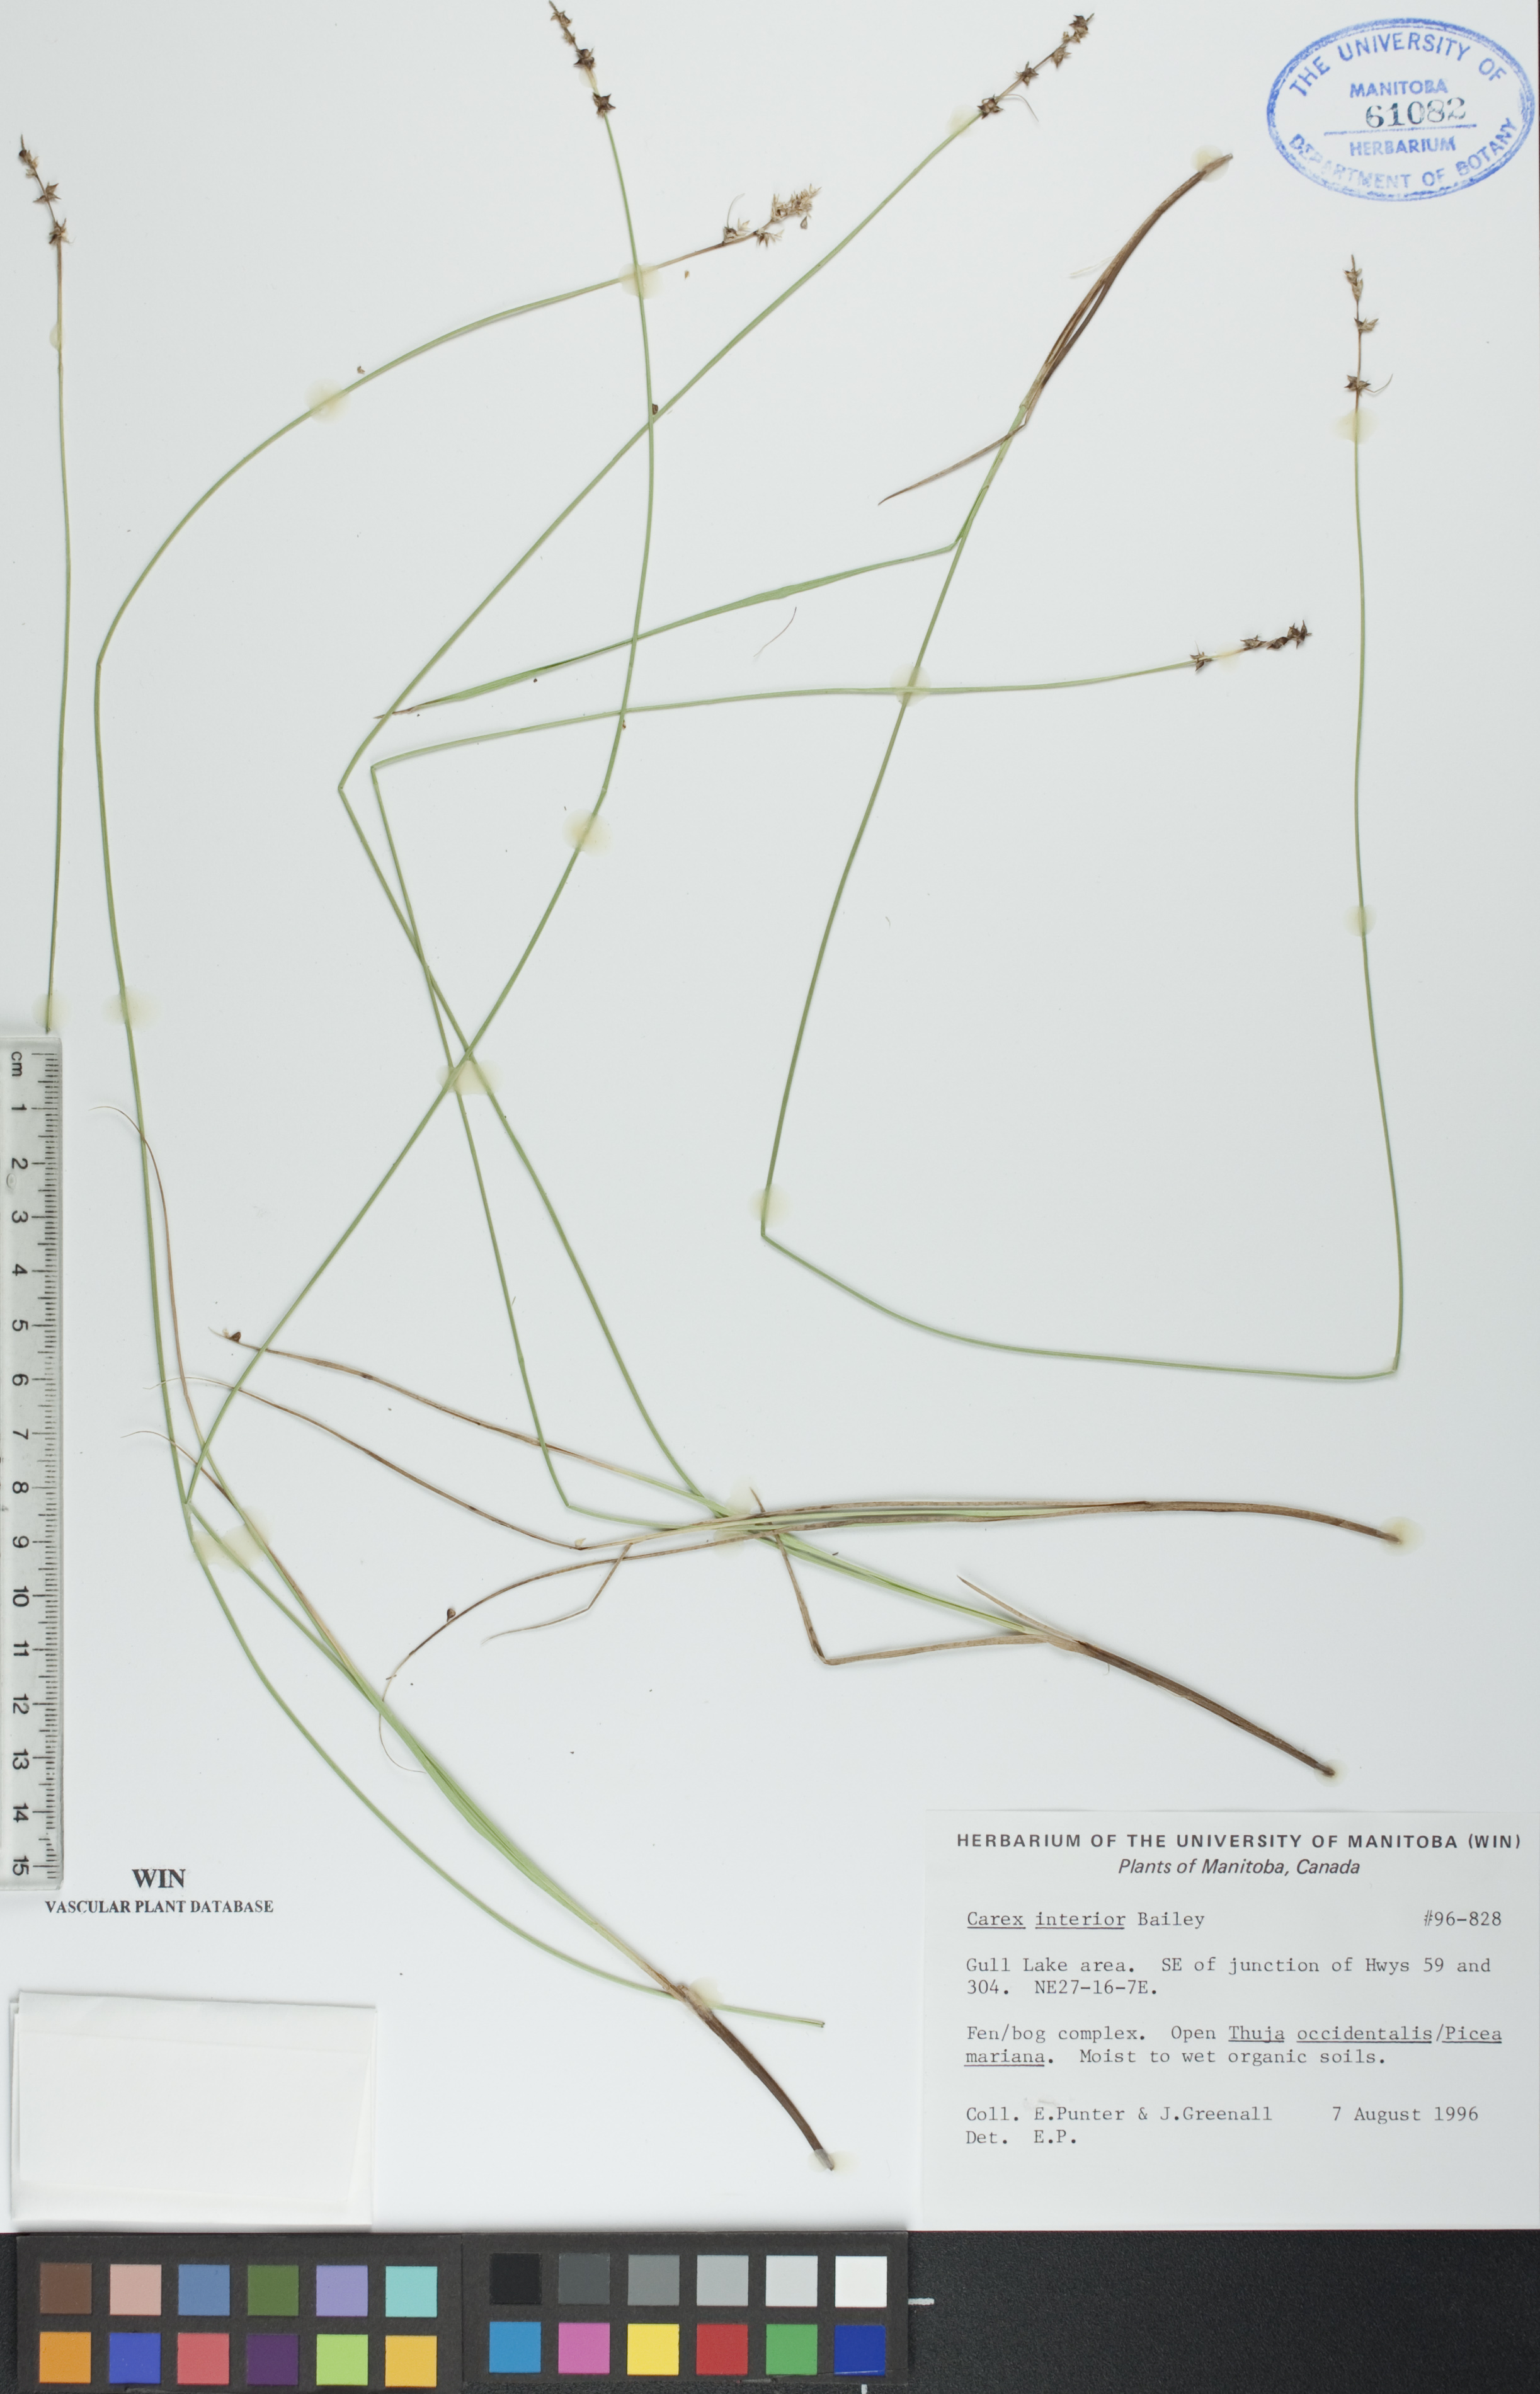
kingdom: Plantae
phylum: Tracheophyta
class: Liliopsida
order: Poales
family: Cyperaceae
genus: Carex
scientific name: Carex interior
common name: Inland sedge
